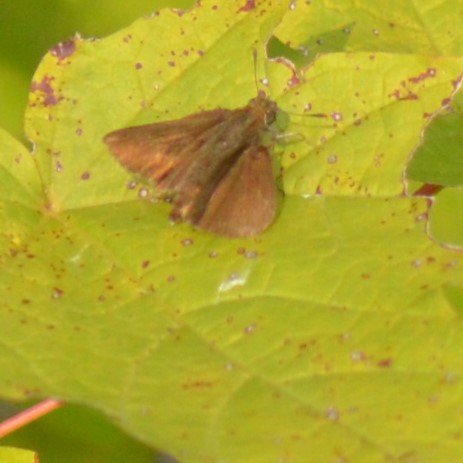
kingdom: Animalia
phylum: Arthropoda
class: Insecta
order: Lepidoptera
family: Hesperiidae
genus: Euphyes
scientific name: Euphyes vestris
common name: Dun Skipper
